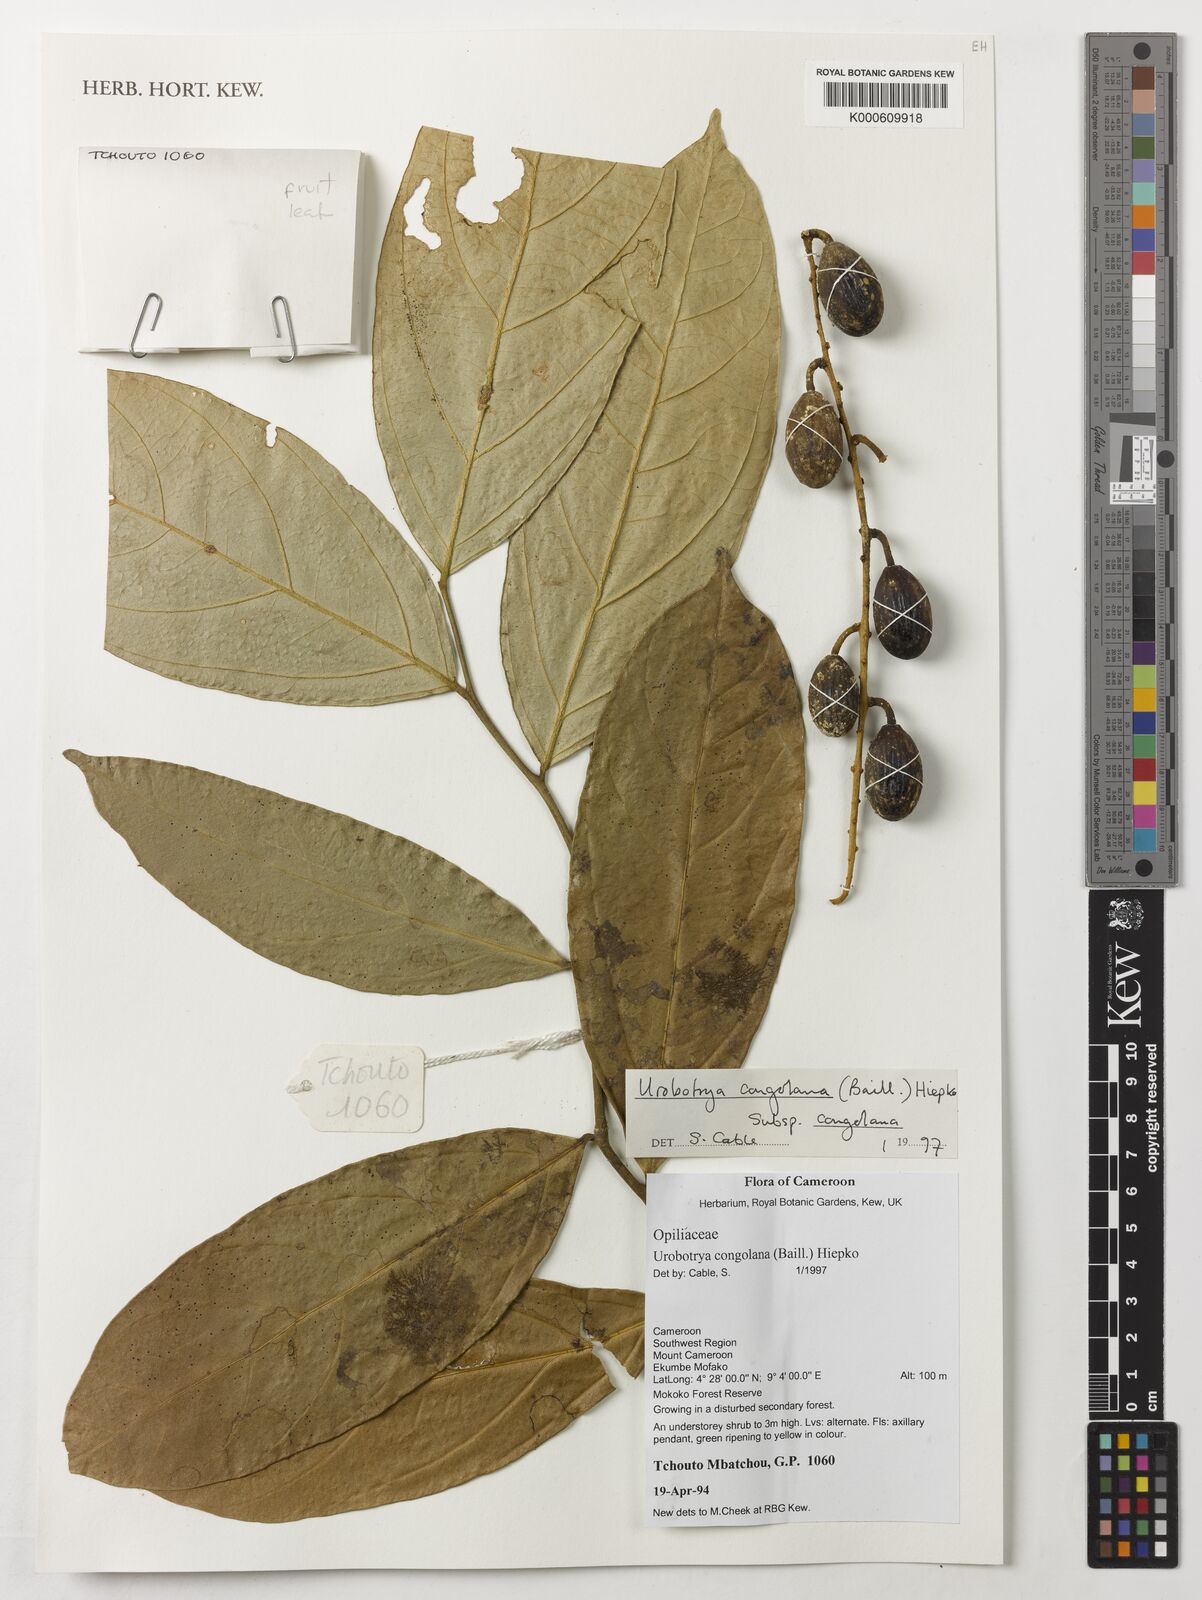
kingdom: Plantae
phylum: Tracheophyta
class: Magnoliopsida
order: Santalales
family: Opiliaceae
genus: Urobotrya
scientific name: Urobotrya congolana
